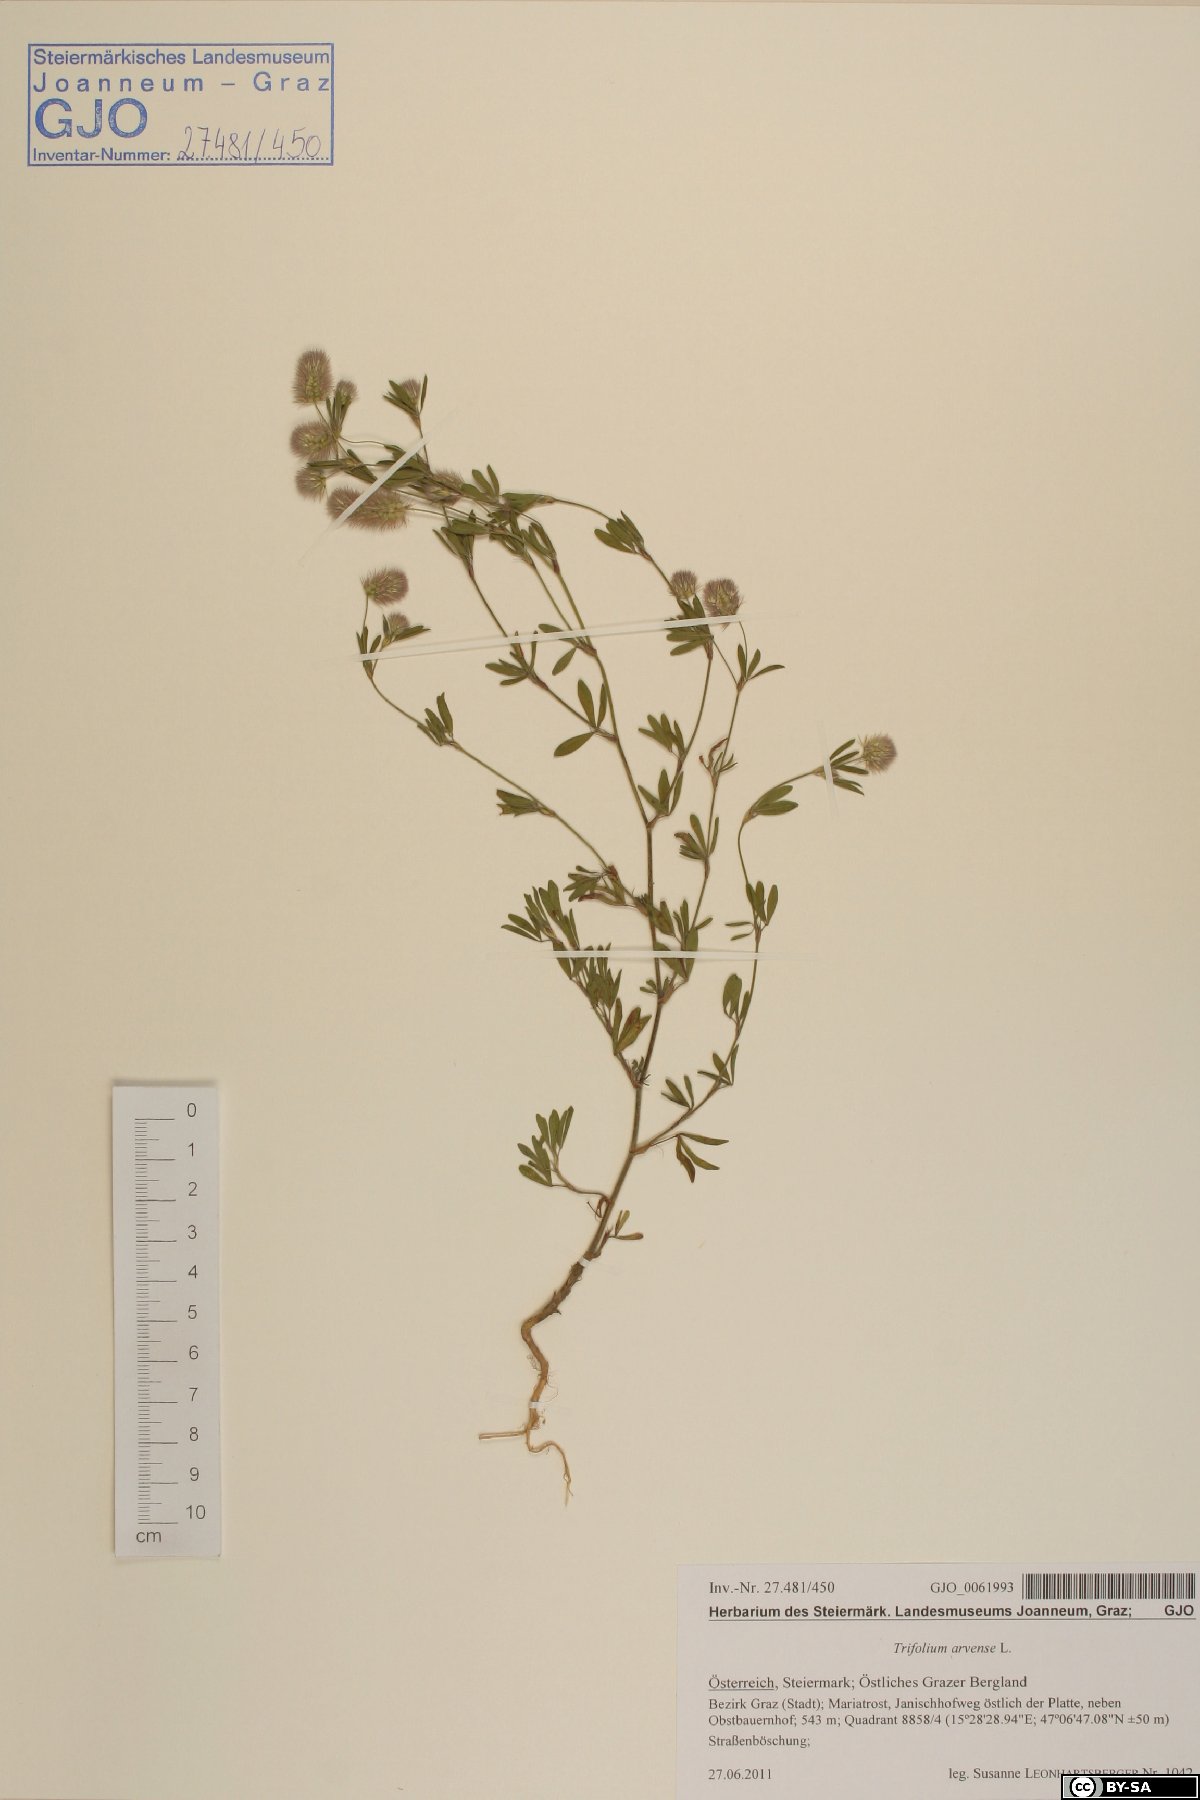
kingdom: Plantae
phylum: Tracheophyta
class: Magnoliopsida
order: Fabales
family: Fabaceae
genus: Trifolium
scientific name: Trifolium arvense
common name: Hare's-foot clover
